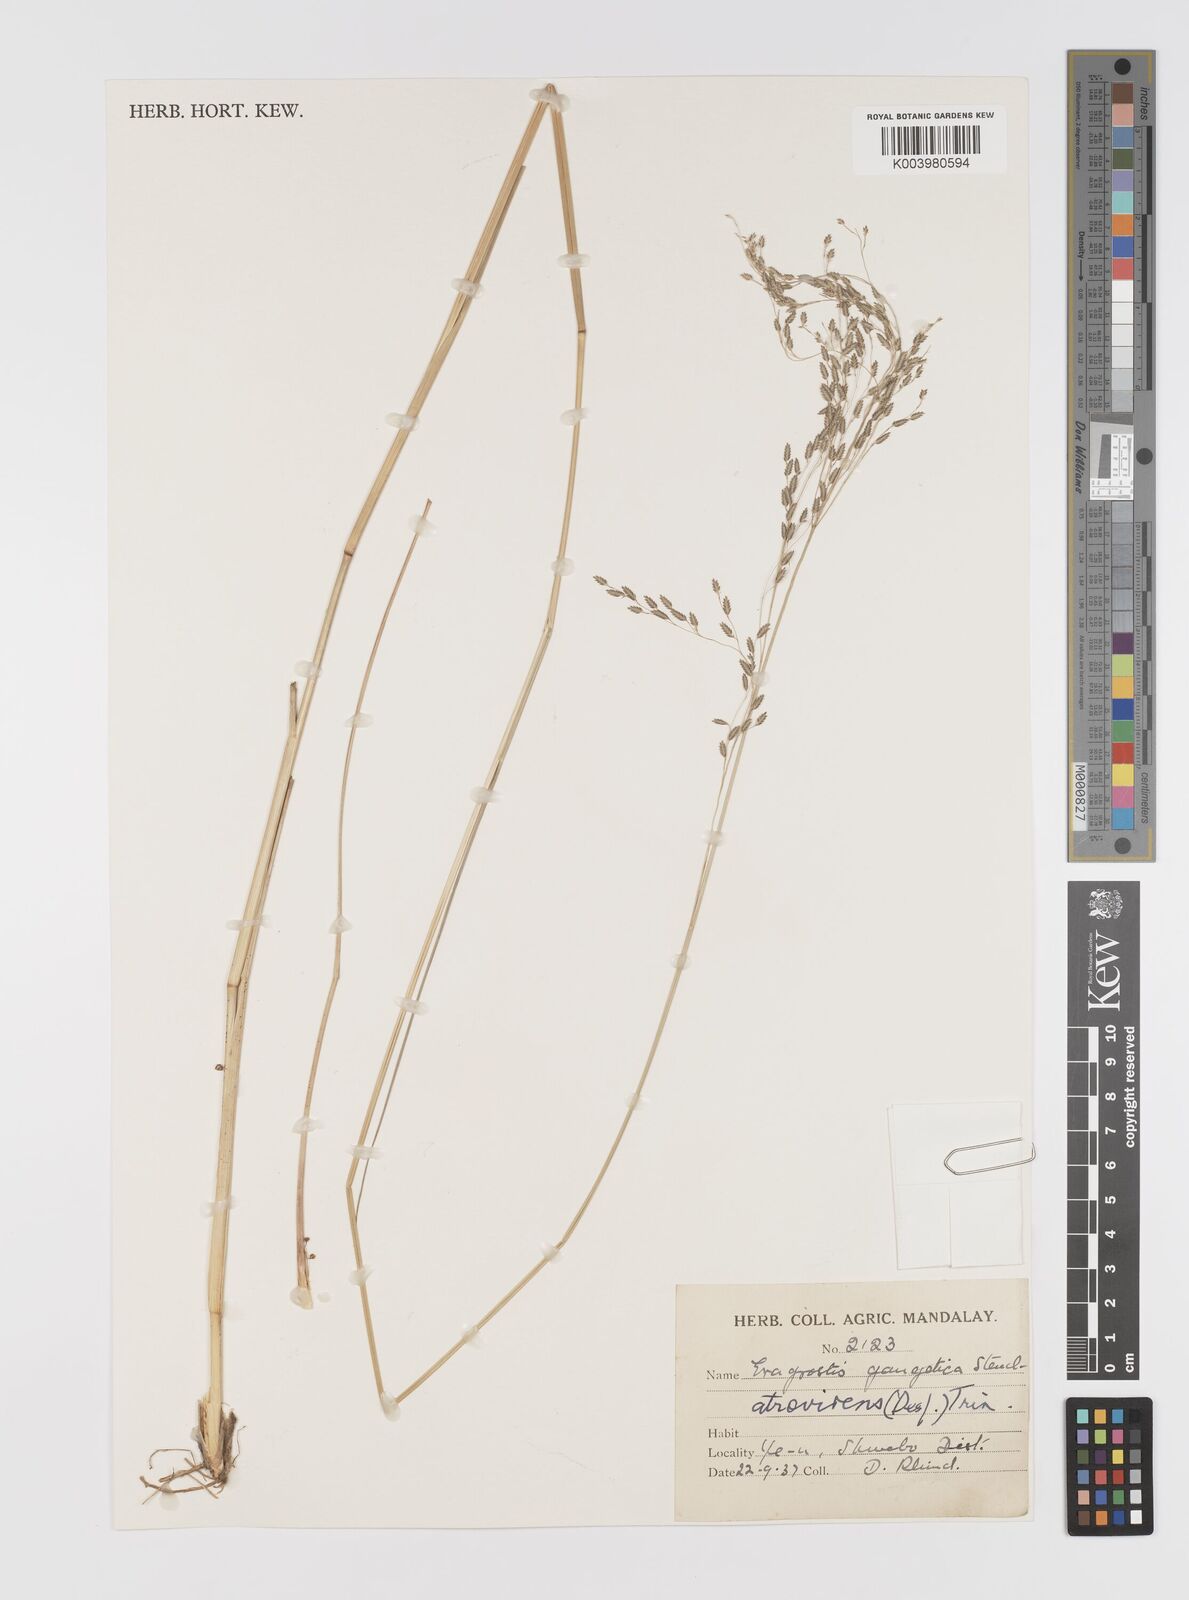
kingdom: Plantae
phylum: Tracheophyta
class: Liliopsida
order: Poales
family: Poaceae
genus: Eragrostis
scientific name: Eragrostis atrovirens
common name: Thalia lovegrass
